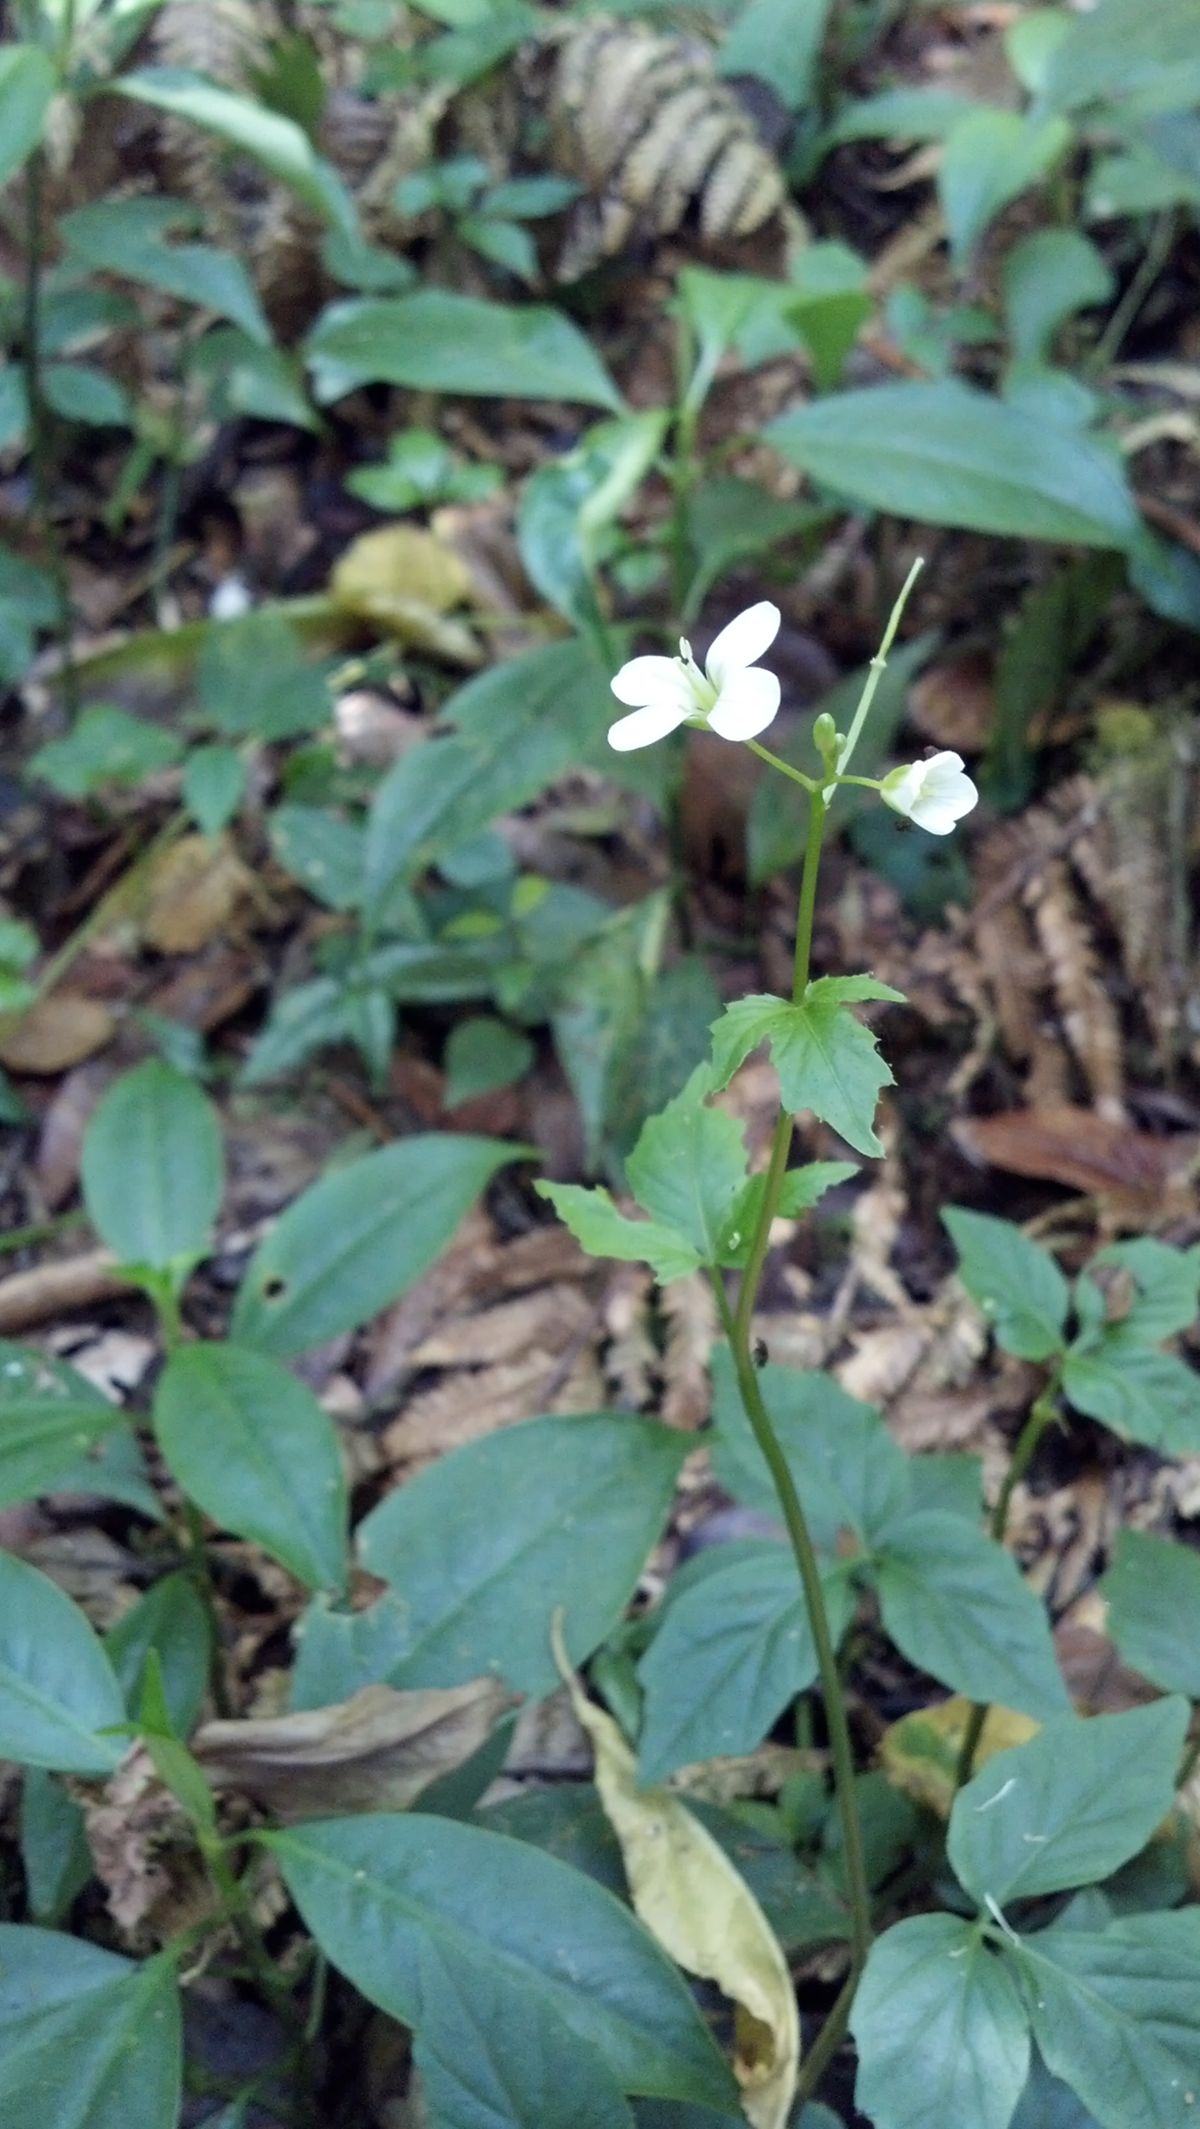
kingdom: Plantae
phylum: Tracheophyta
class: Magnoliopsida
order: Brassicales
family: Brassicaceae
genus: Cardamine
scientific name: Cardamine africana
